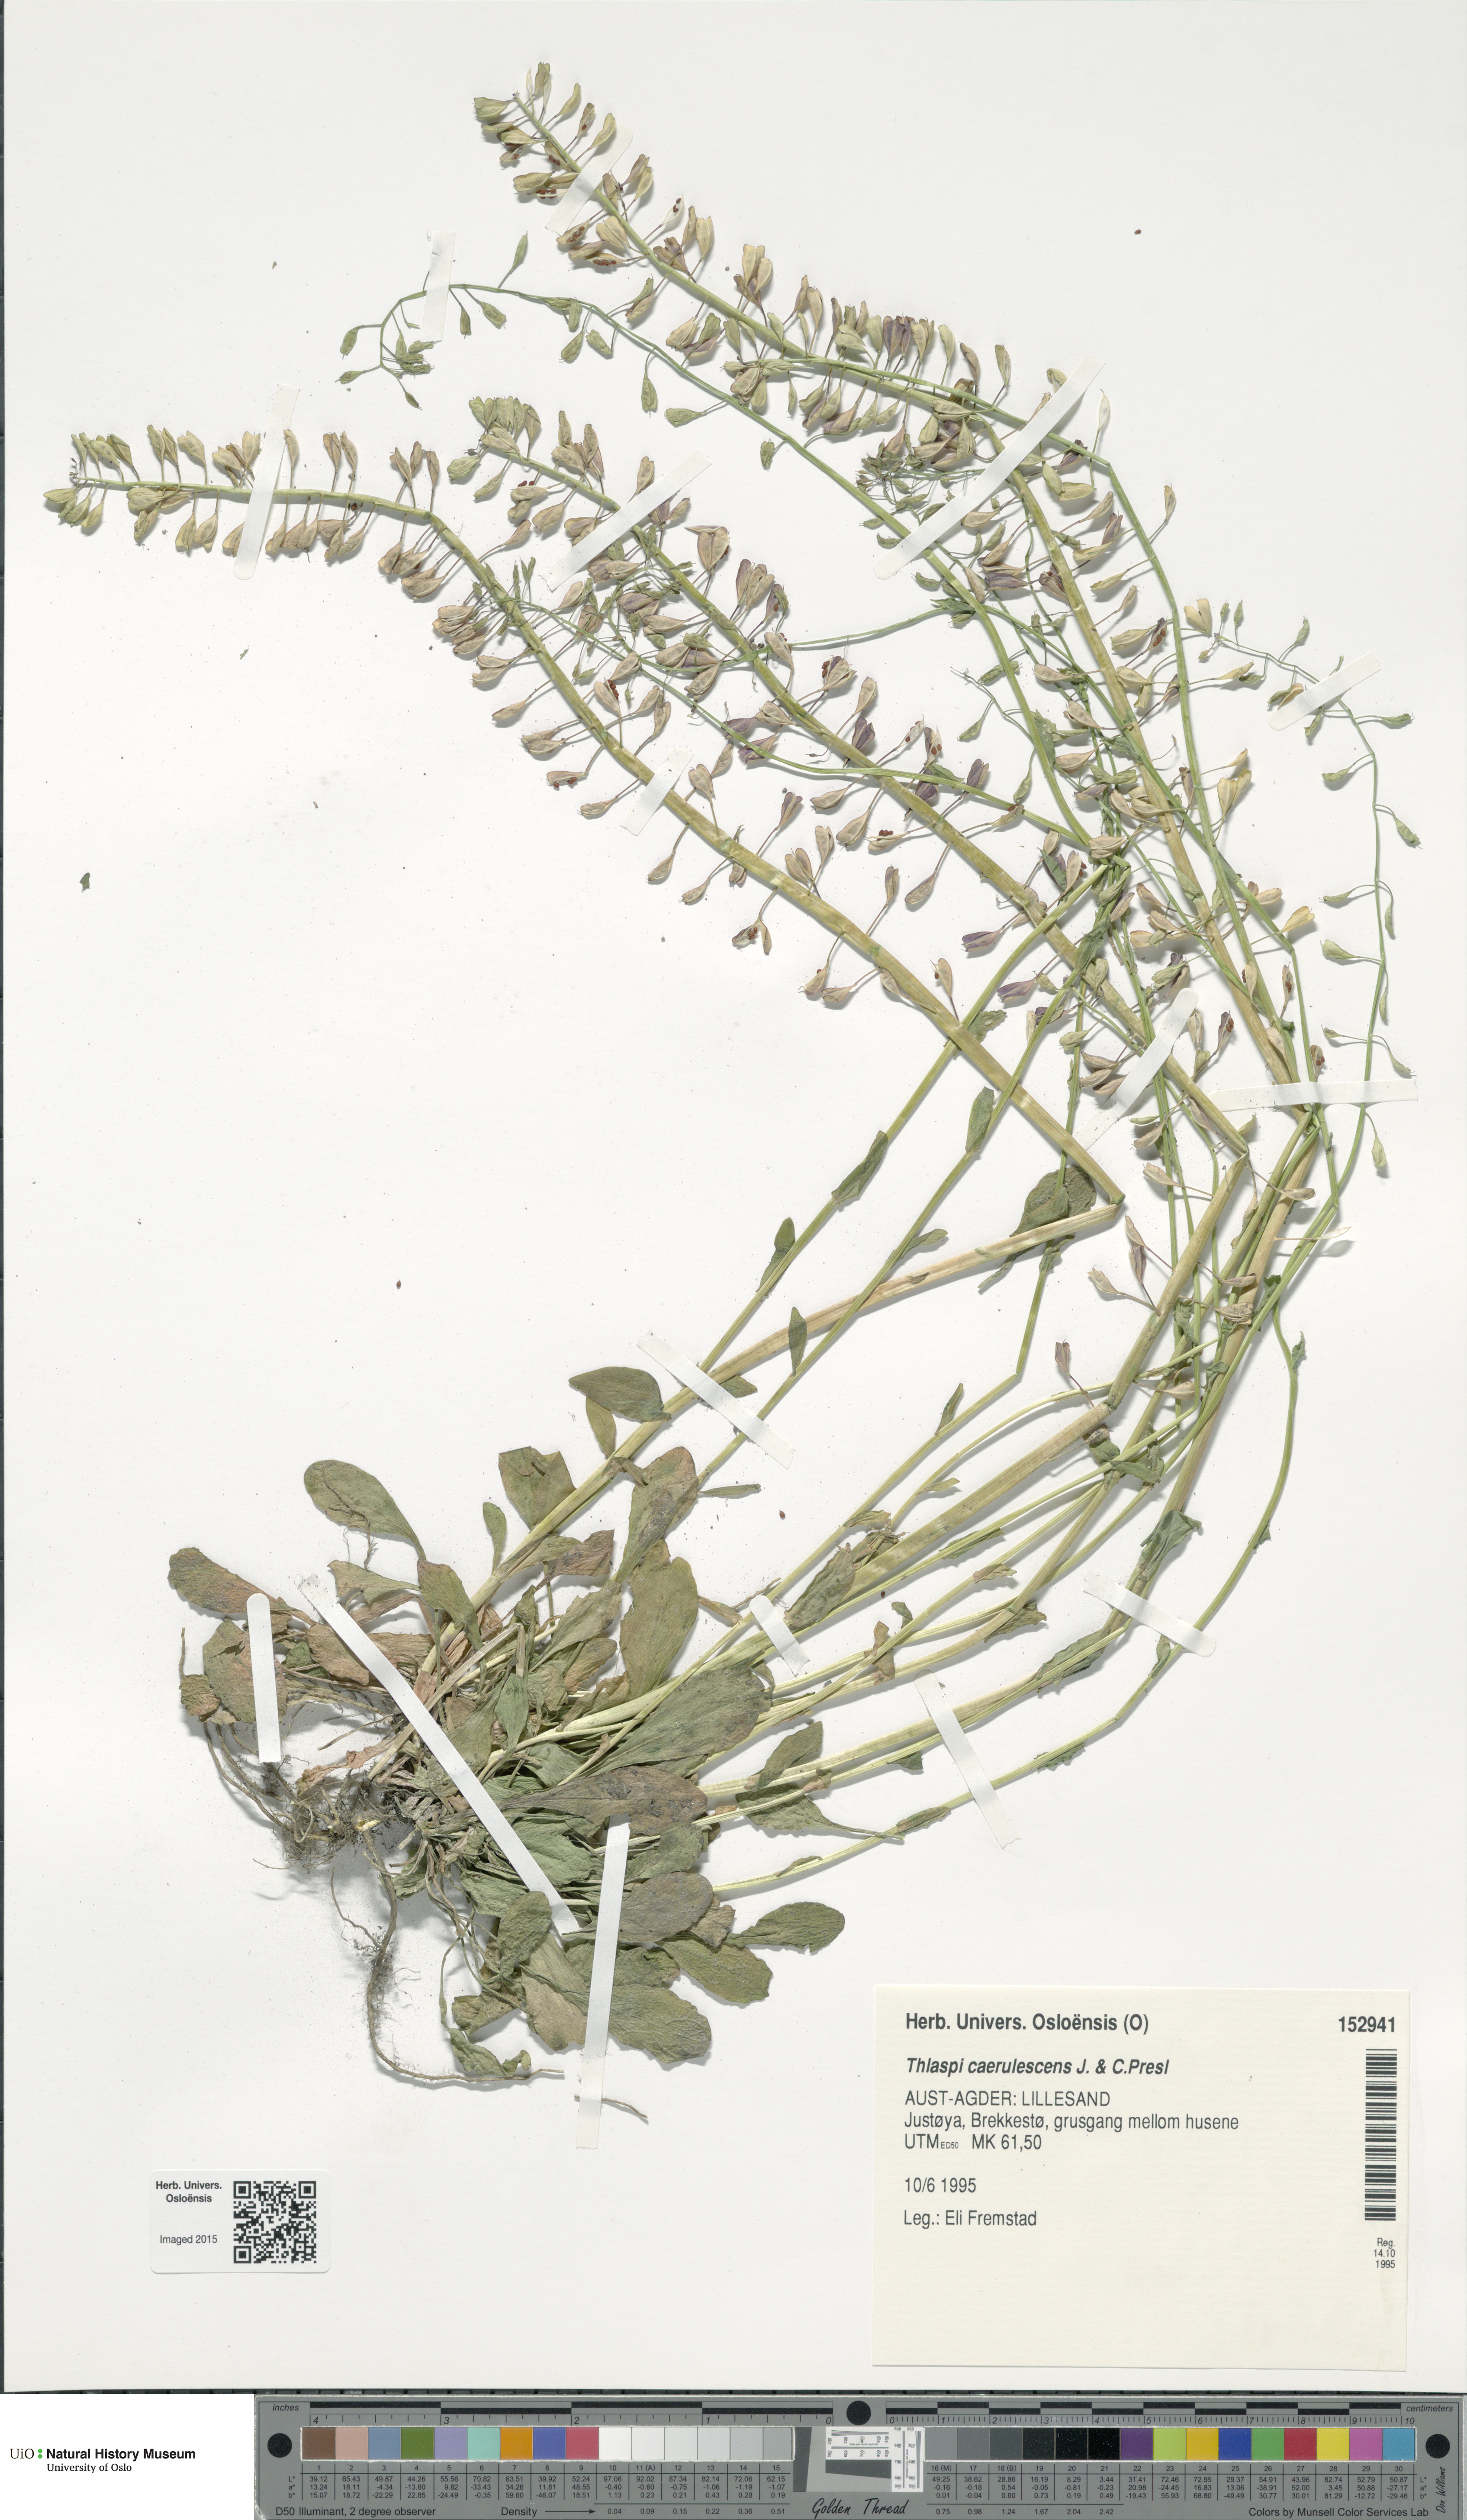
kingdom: Plantae
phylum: Tracheophyta
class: Magnoliopsida
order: Brassicales
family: Brassicaceae
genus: Noccaea
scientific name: Noccaea caerulescens
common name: Alpine pennycress
